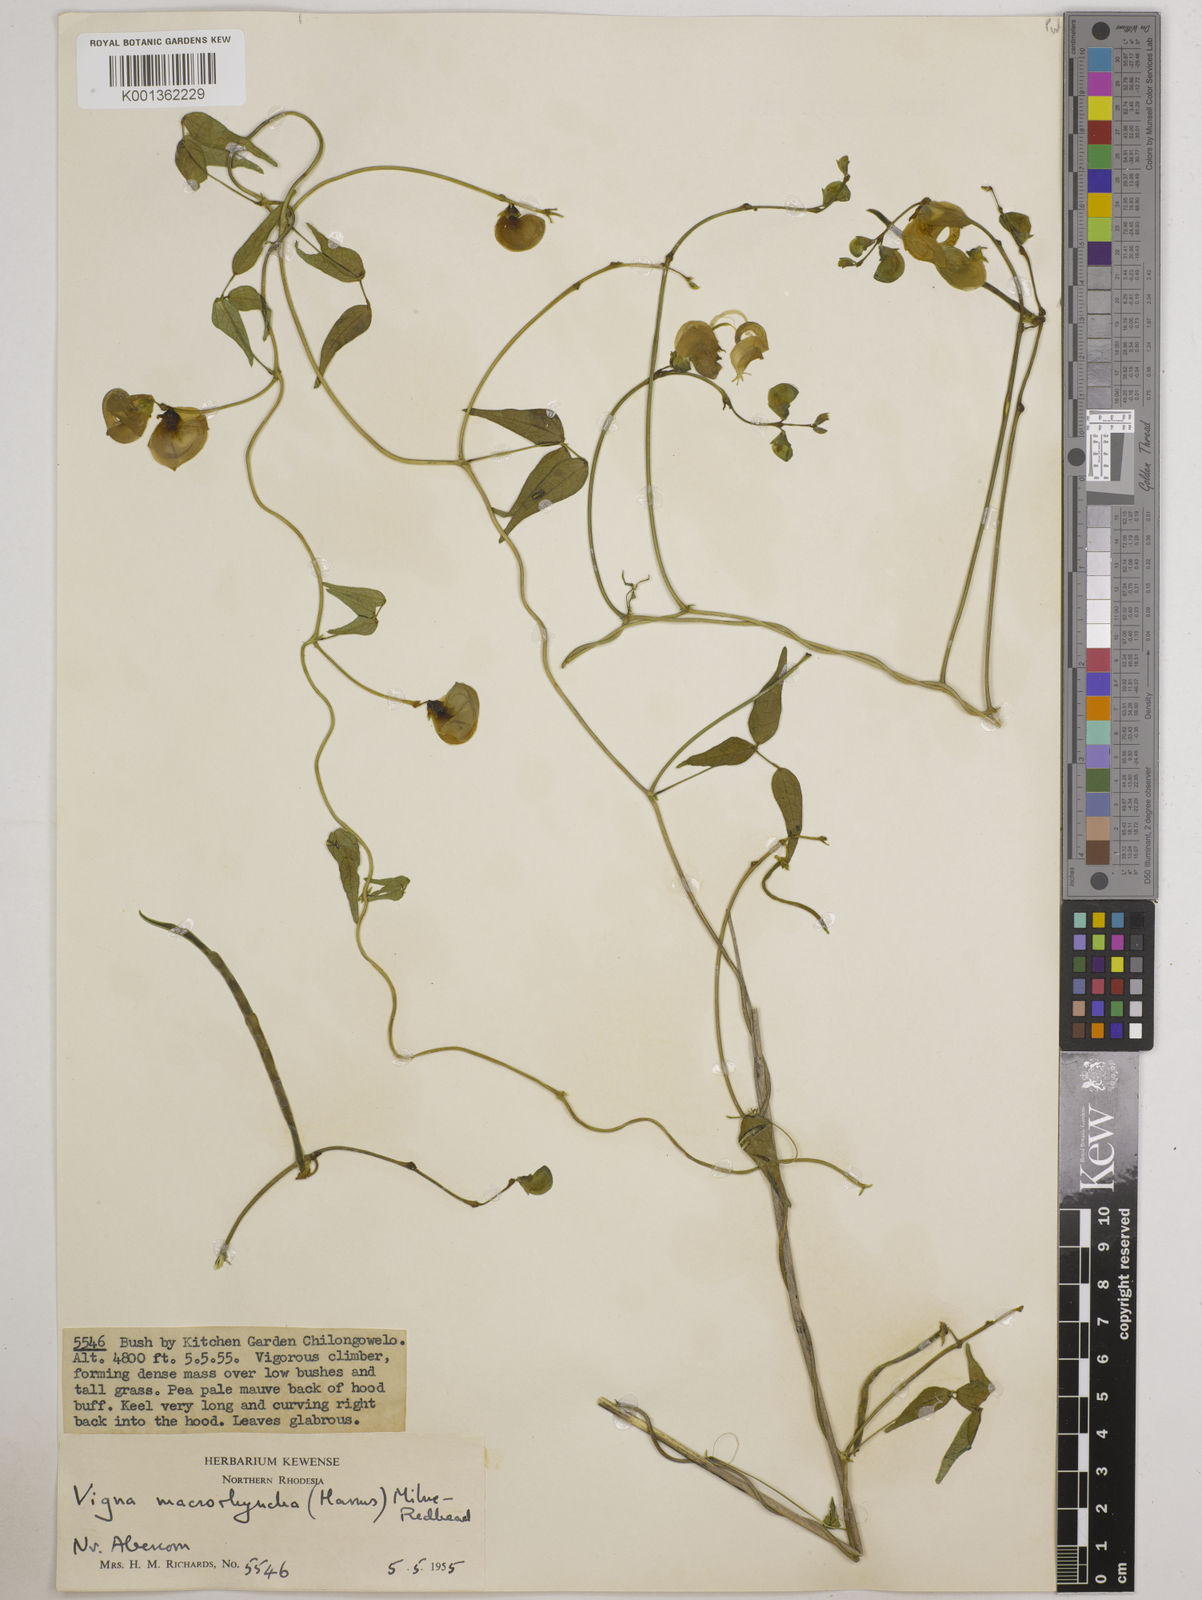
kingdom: Plantae
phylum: Tracheophyta
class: Magnoliopsida
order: Fabales
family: Fabaceae
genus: Wajira
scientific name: Wajira grahamiana
